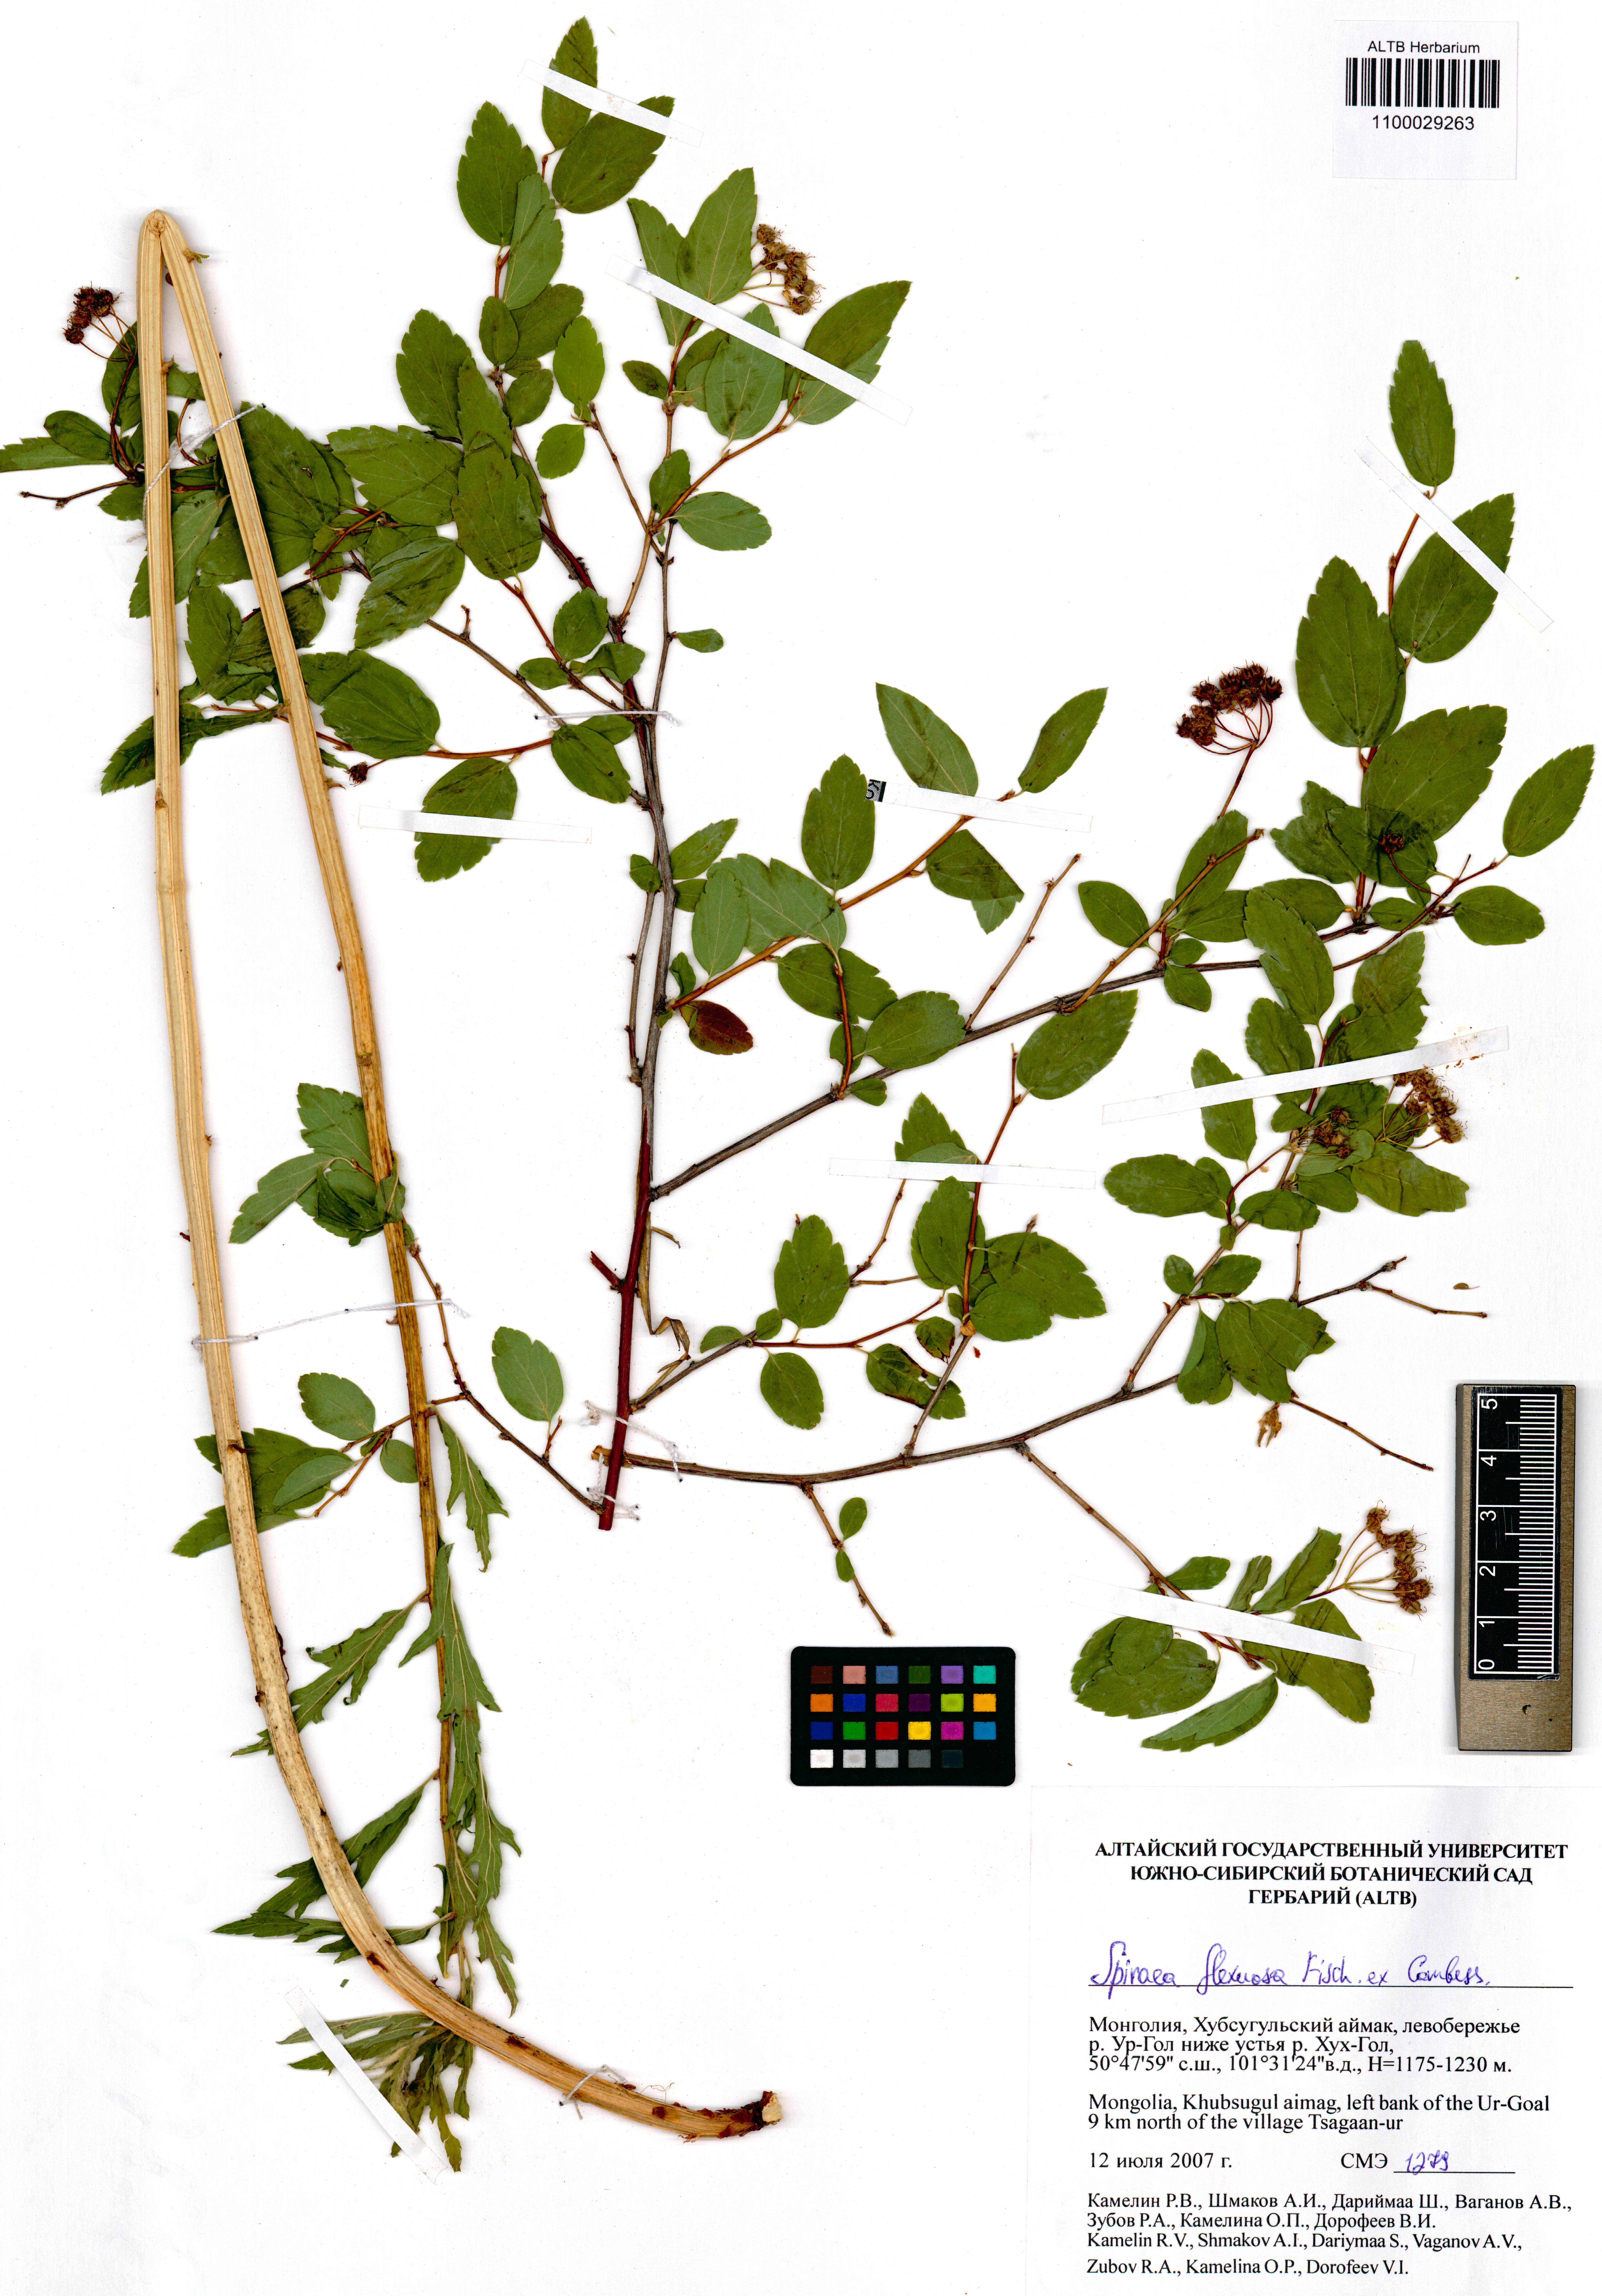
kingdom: Plantae
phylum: Tracheophyta
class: Magnoliopsida
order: Rosales
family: Rosaceae
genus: Spiraea
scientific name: Spiraea flexuosa
